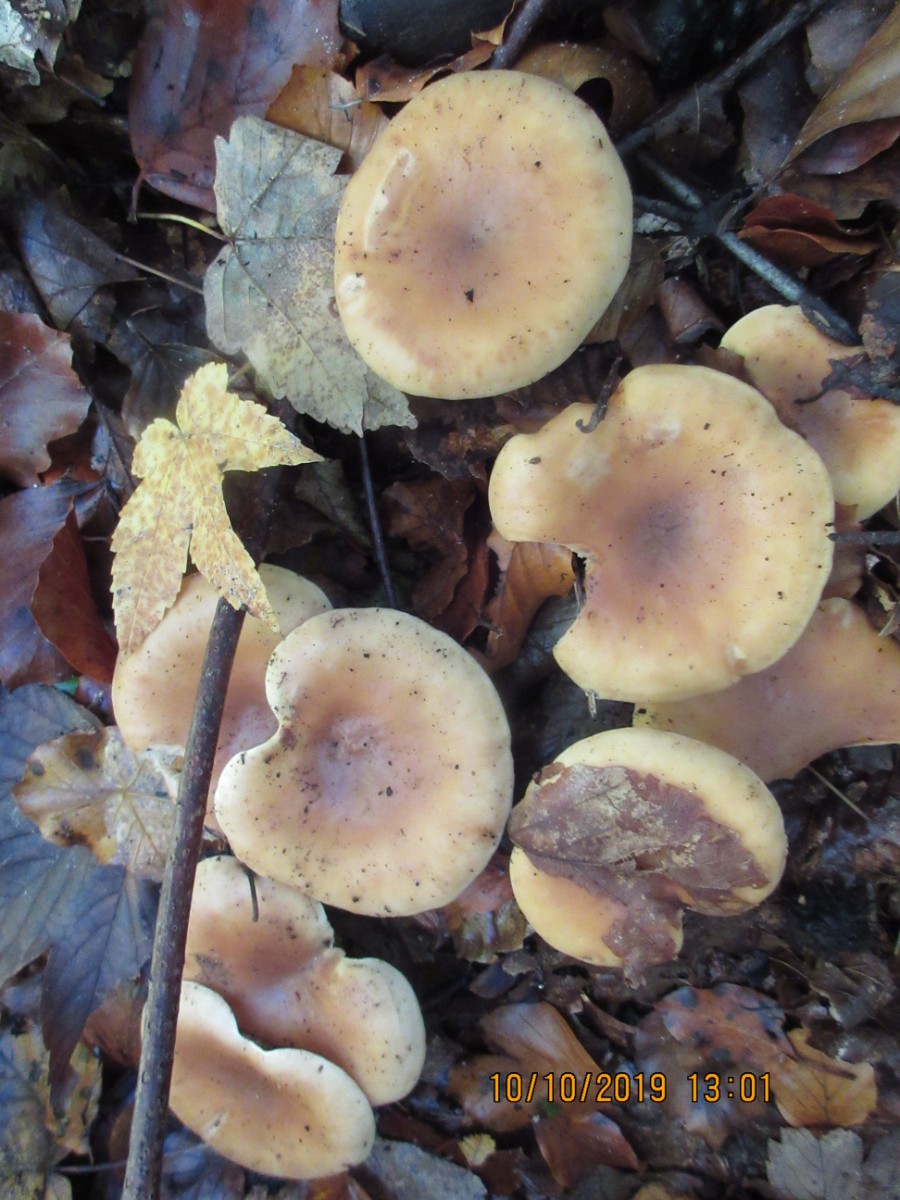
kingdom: Fungi
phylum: Basidiomycota
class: Agaricomycetes
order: Agaricales
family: Tricholomataceae
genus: Paralepista
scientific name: Paralepista flaccida
